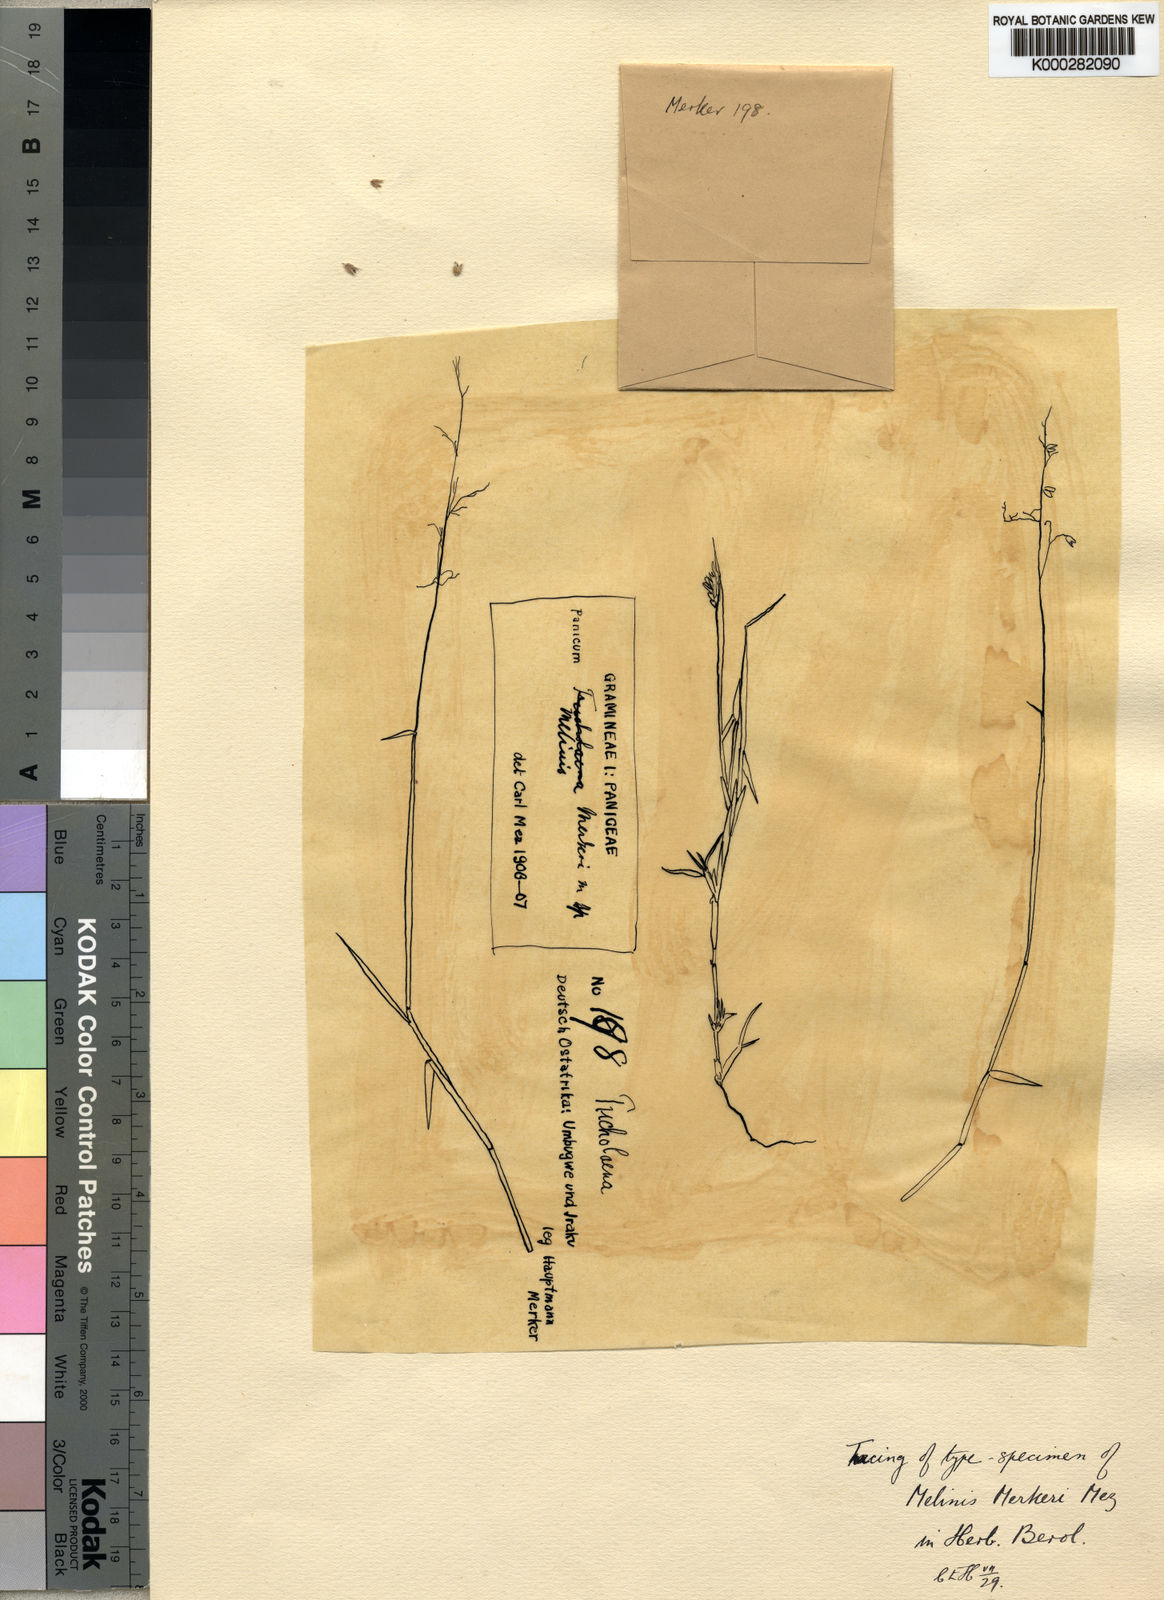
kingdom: Plantae
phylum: Tracheophyta
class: Liliopsida
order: Poales
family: Poaceae
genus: Melinis
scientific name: Melinis
